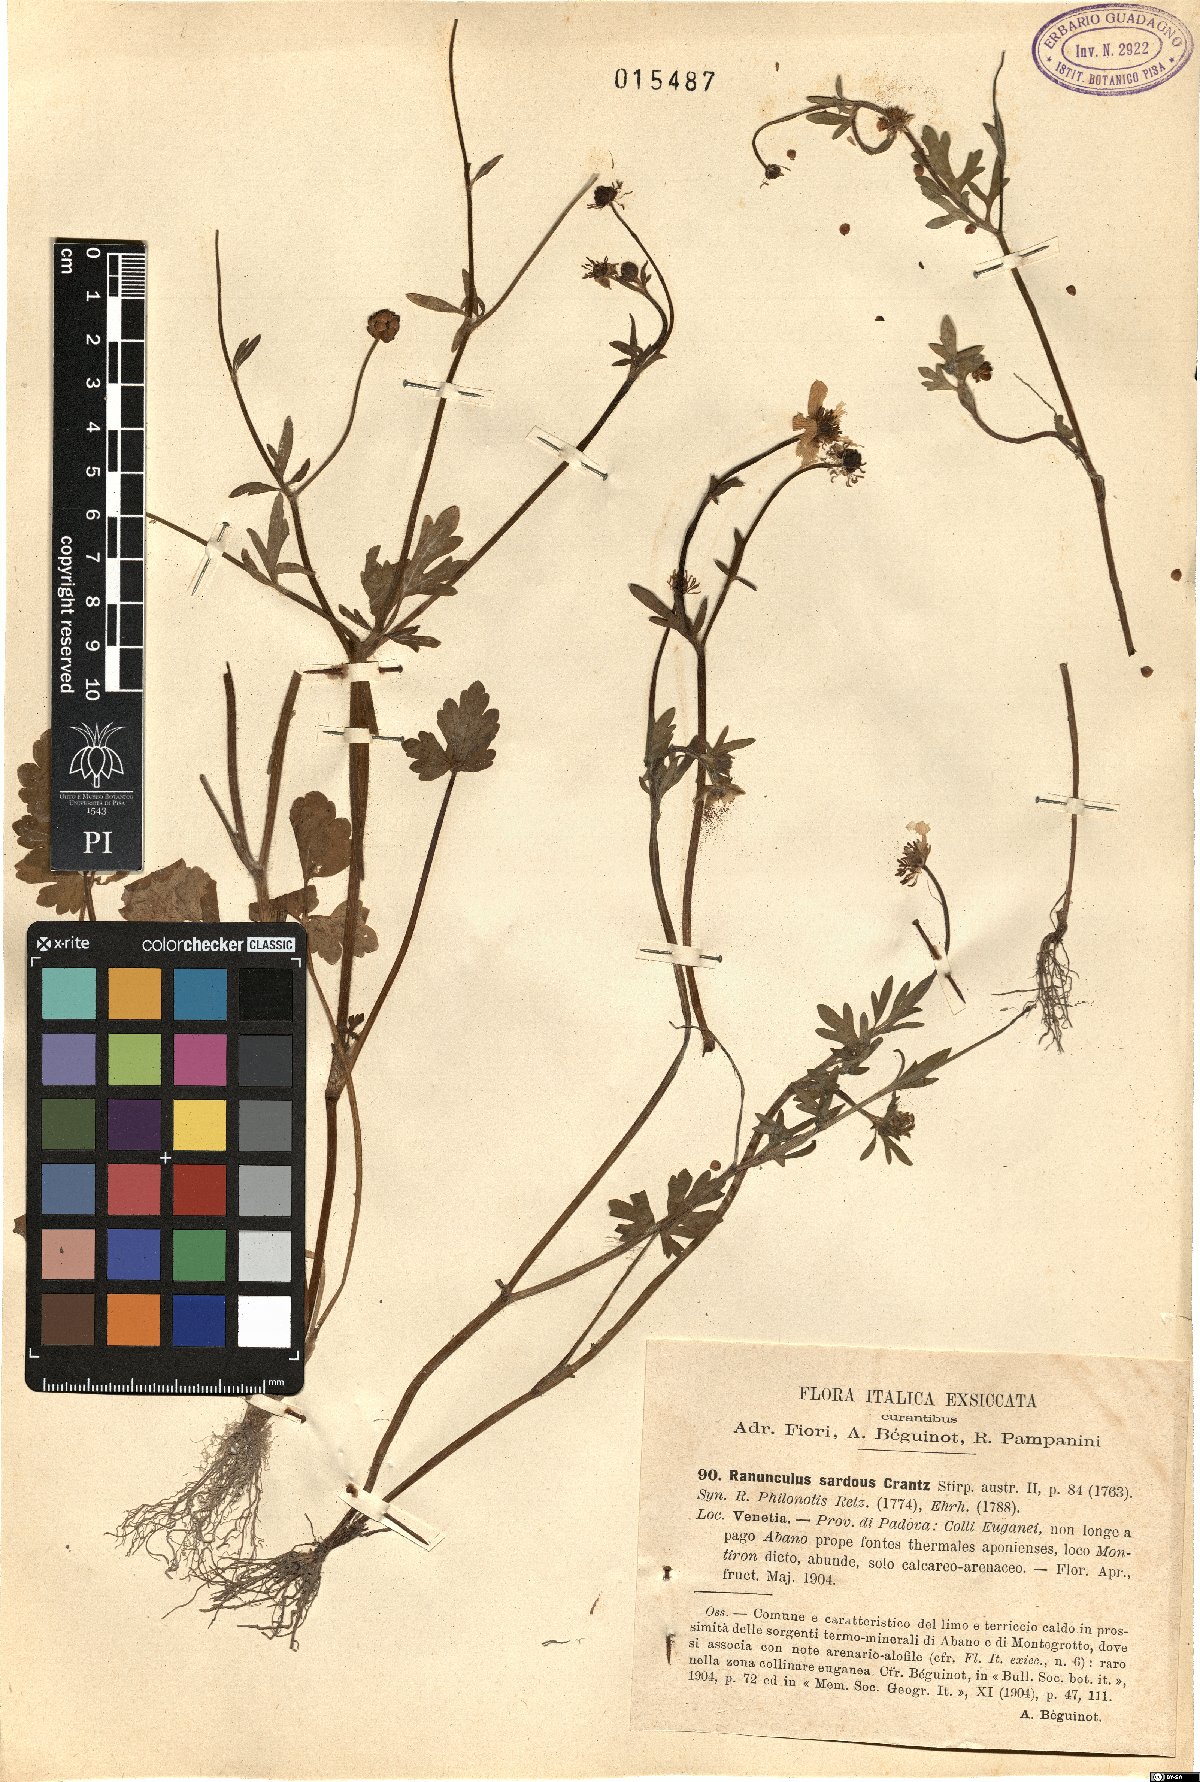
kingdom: Plantae
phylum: Tracheophyta
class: Magnoliopsida
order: Ranunculales
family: Ranunculaceae
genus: Ranunculus
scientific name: Ranunculus sardous
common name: Hairy buttercup
